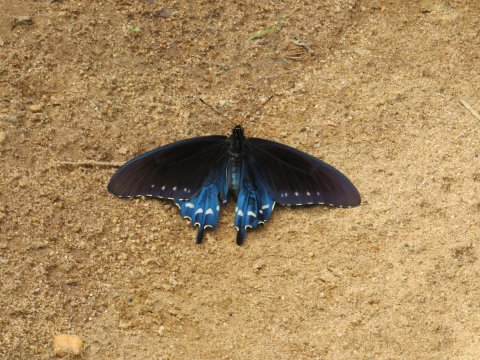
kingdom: Animalia
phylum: Arthropoda
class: Insecta
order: Lepidoptera
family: Papilionidae
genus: Battus
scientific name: Battus philenor
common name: Pipevine Swallowtail
